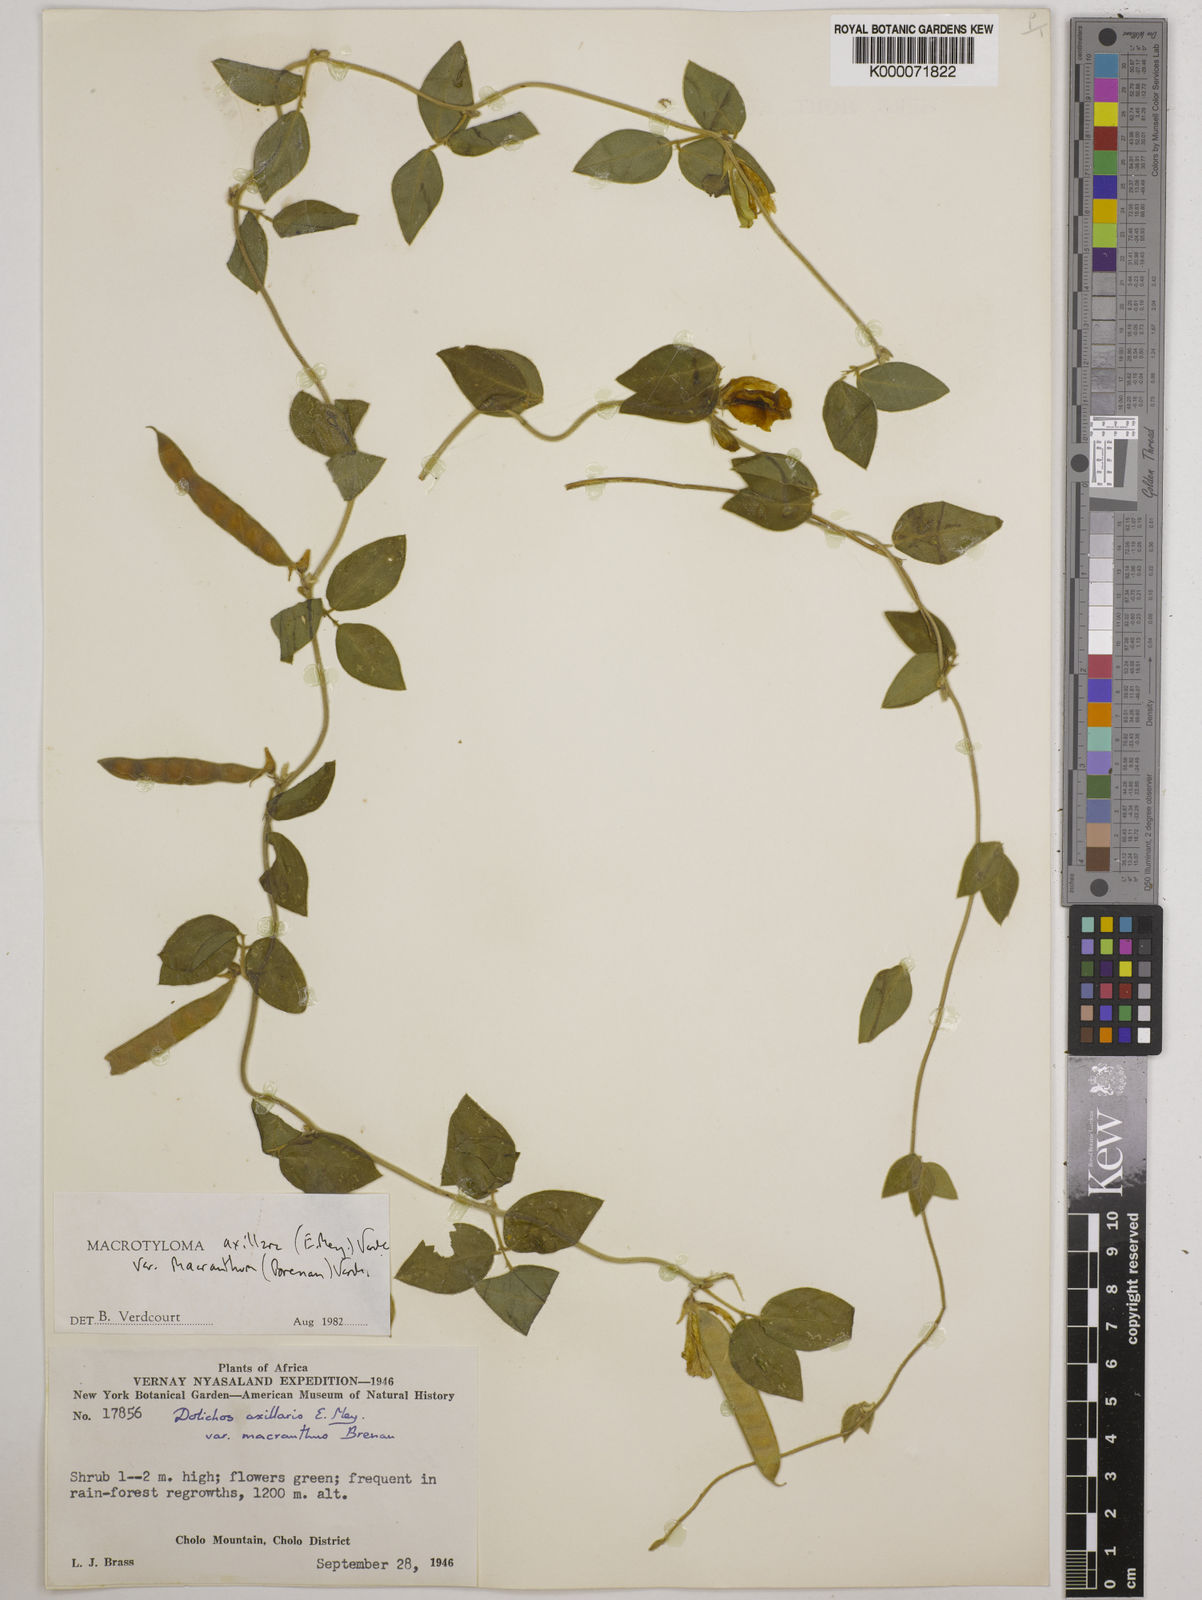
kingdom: Plantae
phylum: Tracheophyta
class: Magnoliopsida
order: Fabales
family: Fabaceae
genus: Macrotyloma
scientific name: Macrotyloma axillare
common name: Perennial horsegram
